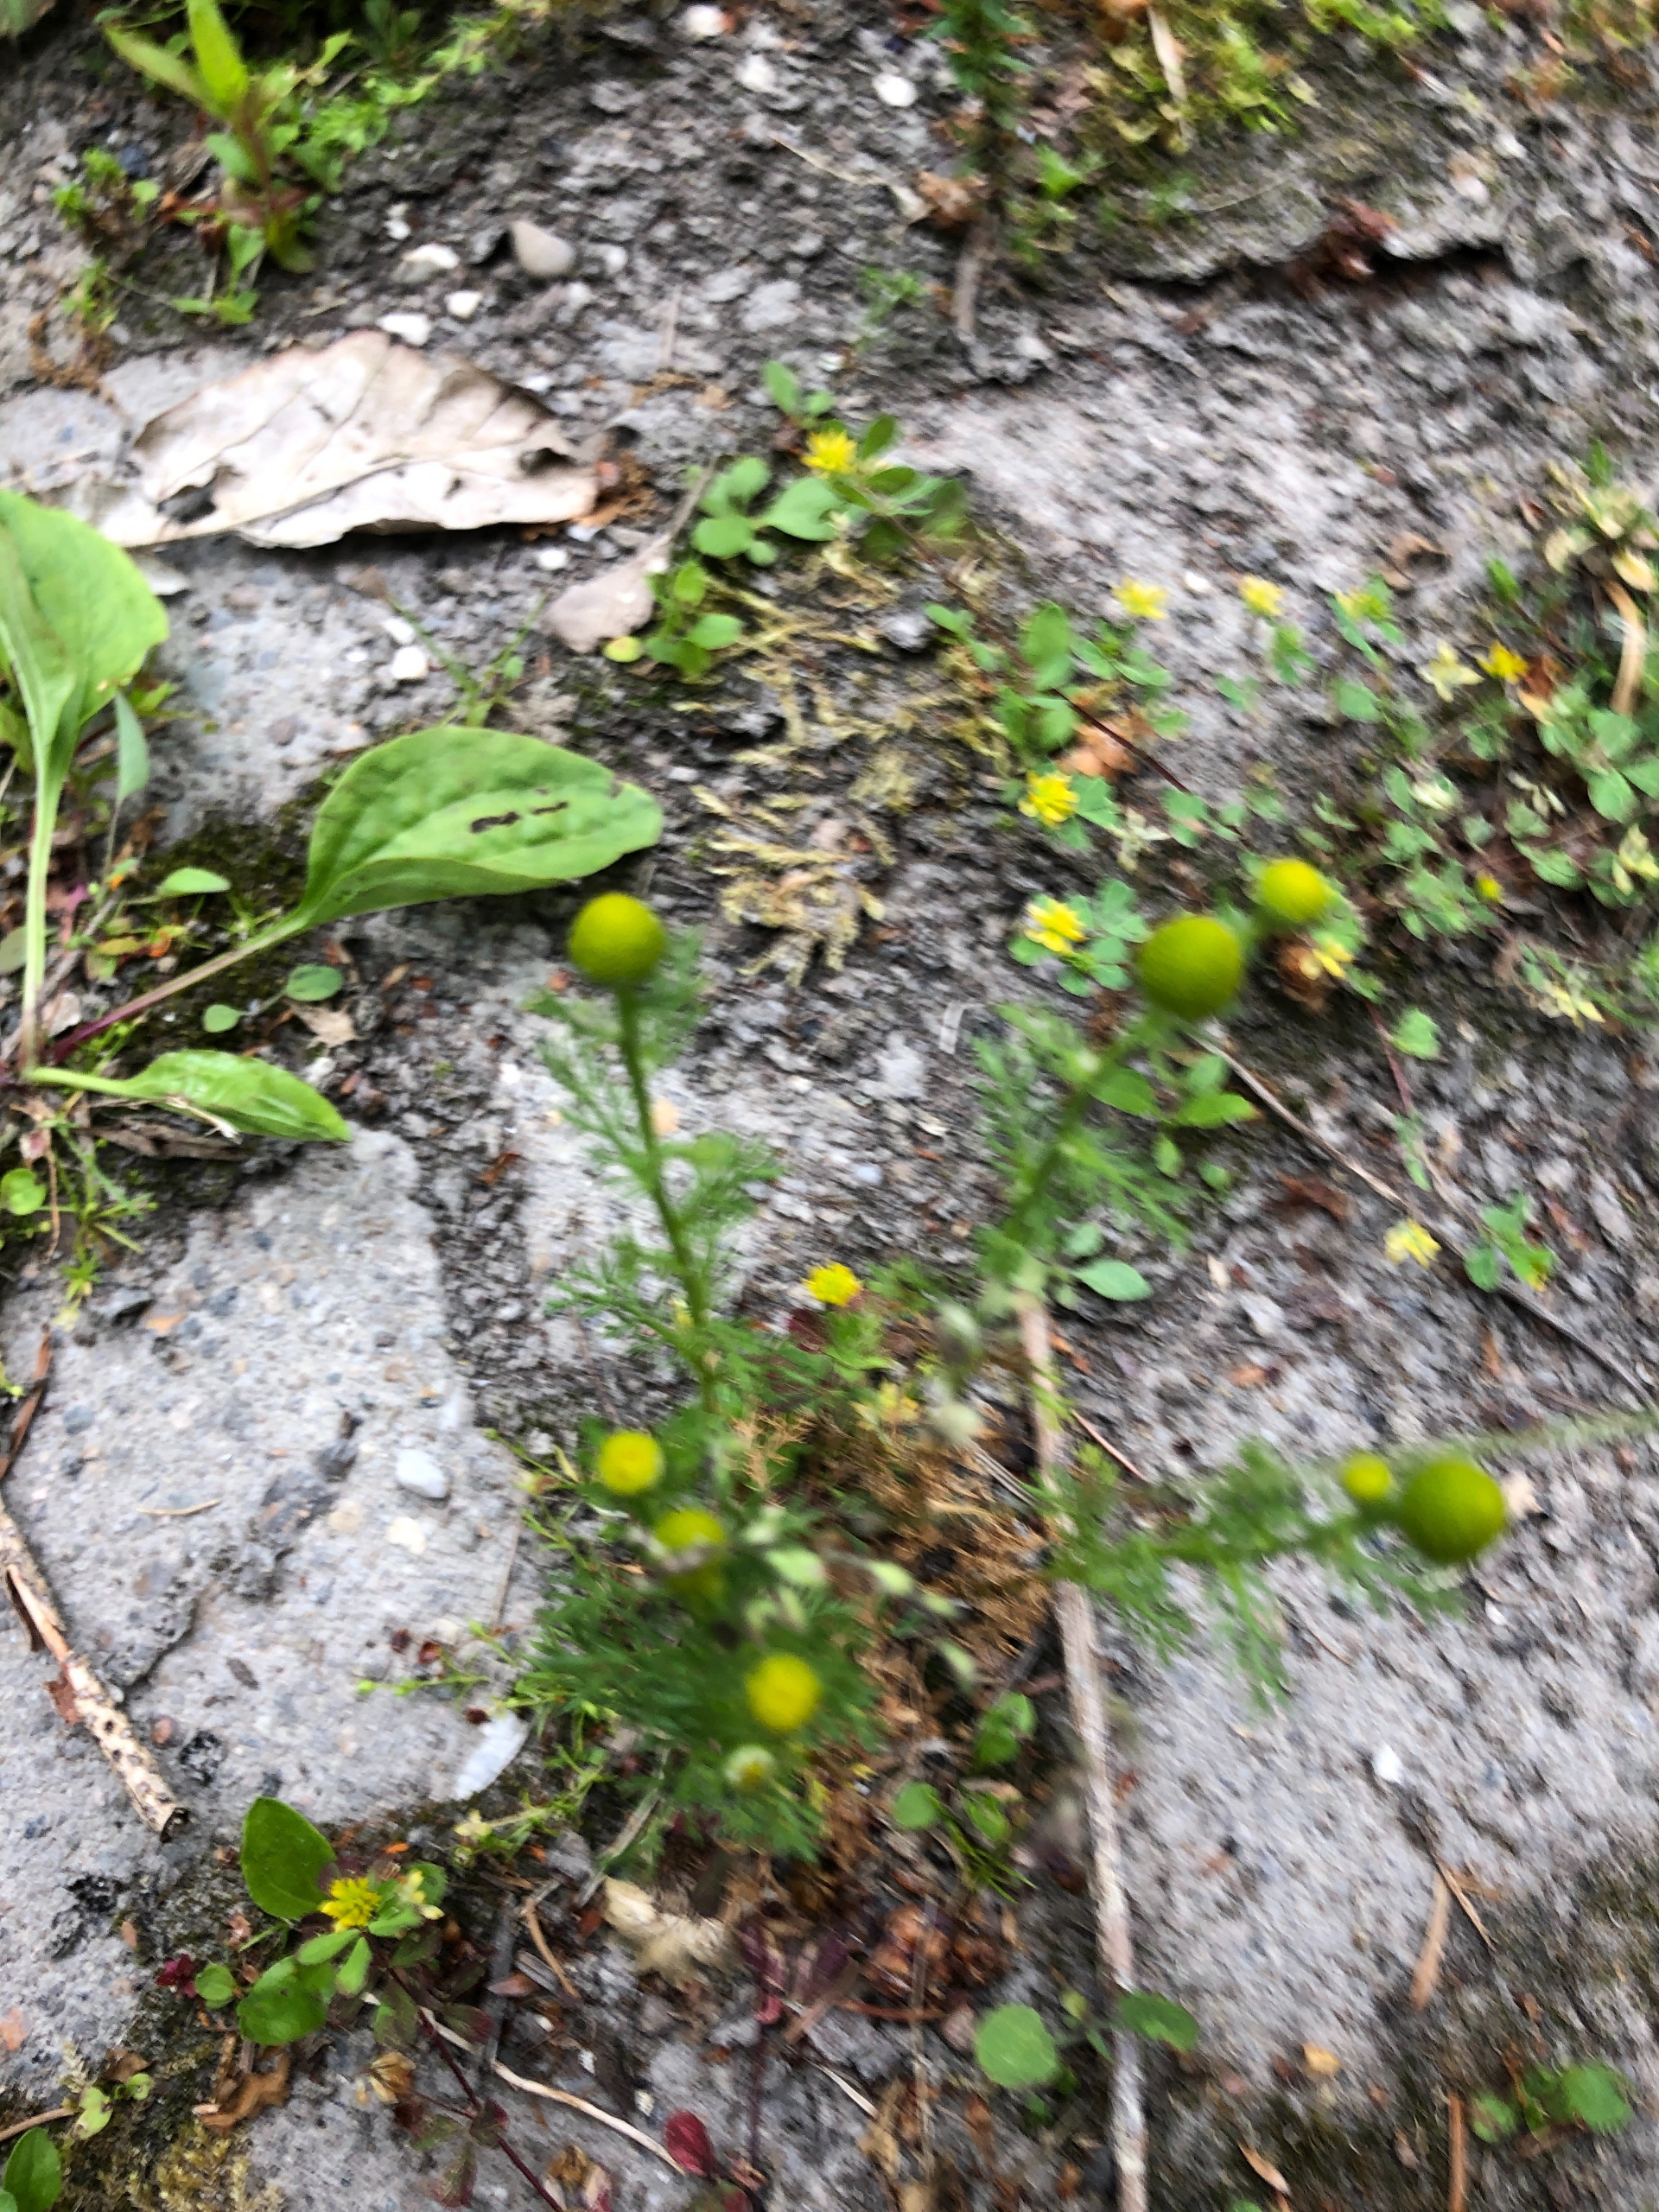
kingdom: Plantae
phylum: Tracheophyta
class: Magnoliopsida
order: Asterales
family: Asteraceae
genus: Matricaria
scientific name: Matricaria discoidea
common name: Skive-kamille
